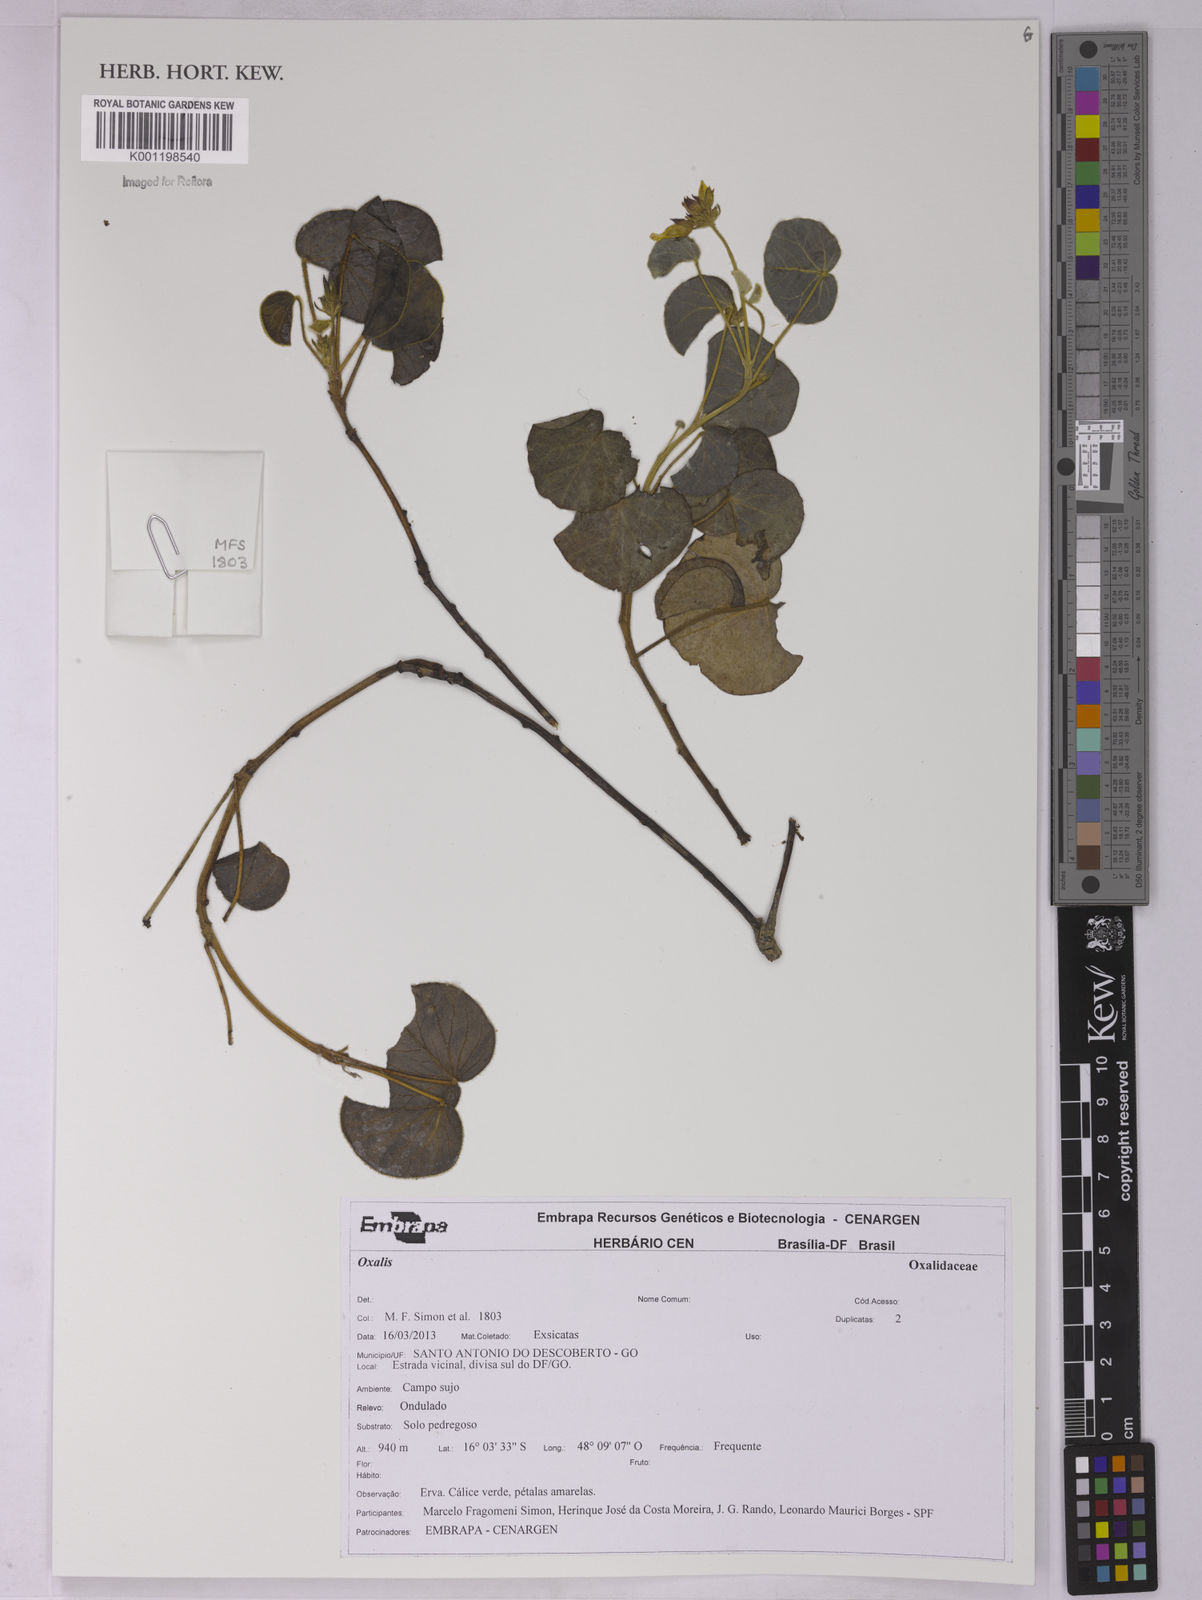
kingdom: Plantae
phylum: Tracheophyta
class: Magnoliopsida
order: Oxalidales
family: Oxalidaceae
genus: Oxalis
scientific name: Oxalis
